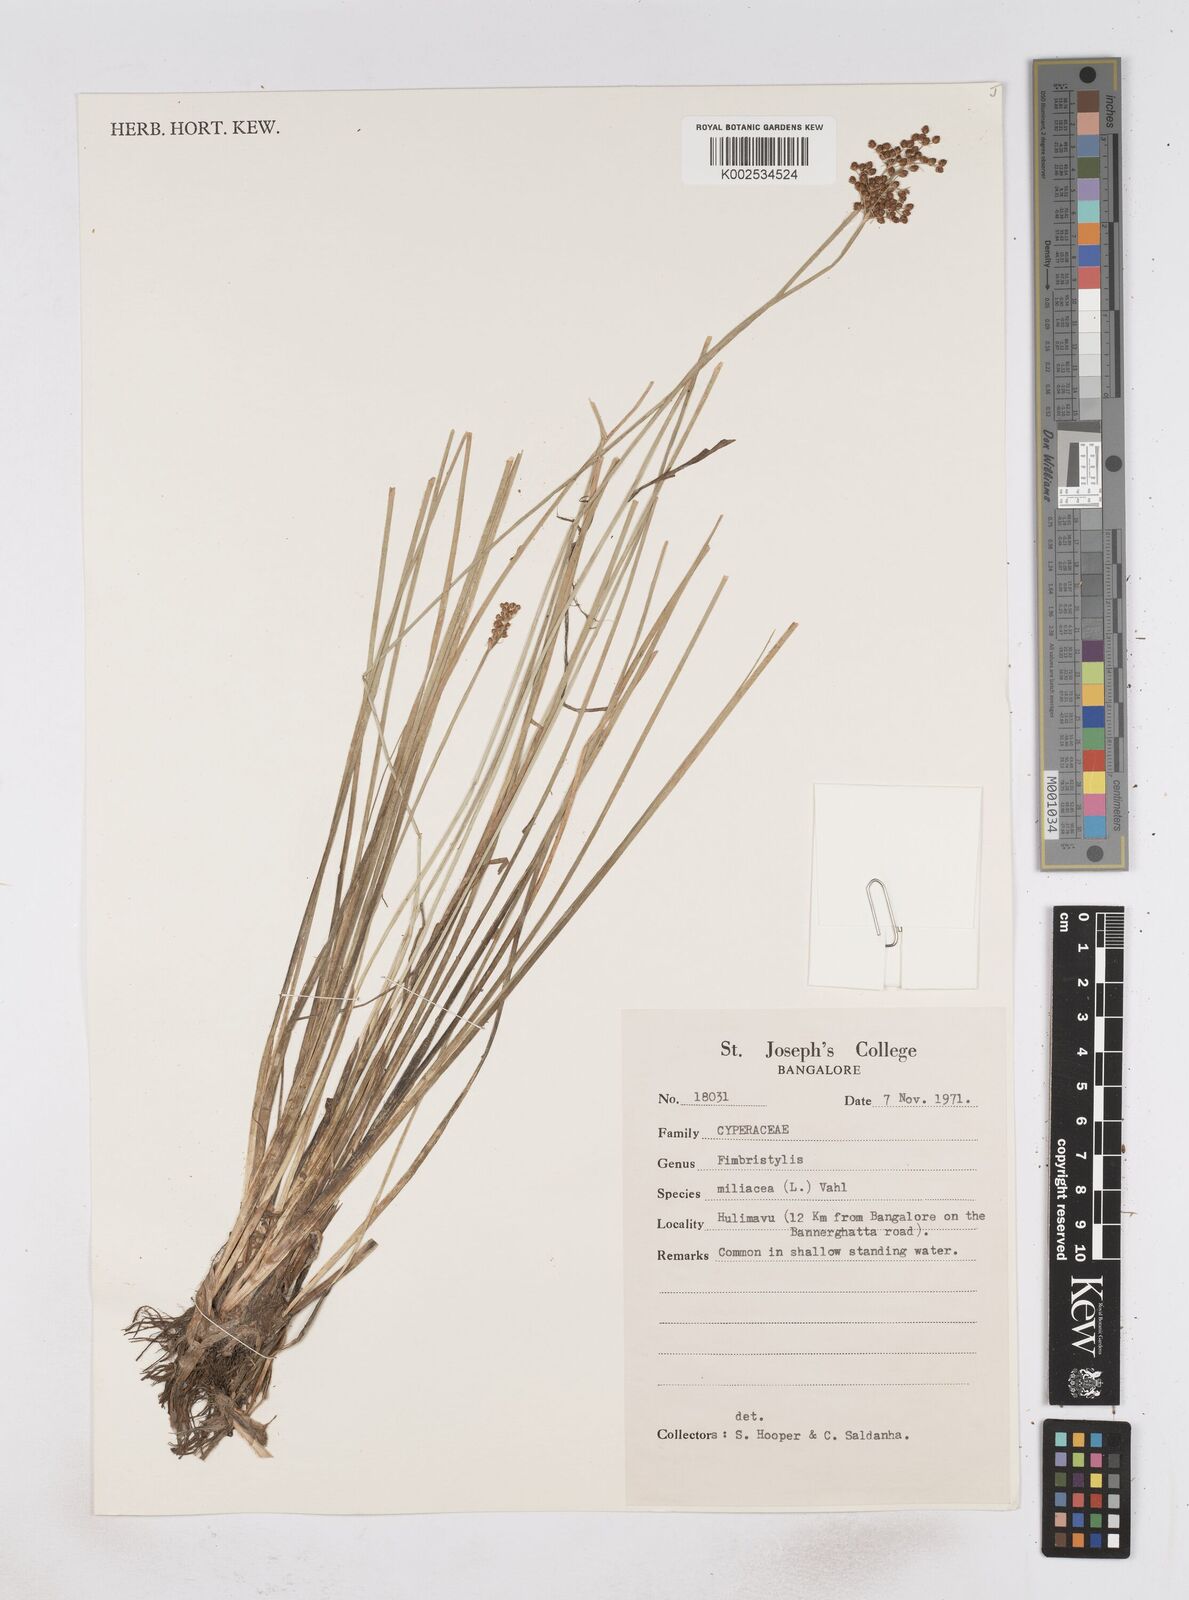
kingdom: Plantae
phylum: Tracheophyta
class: Liliopsida
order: Poales
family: Cyperaceae
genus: Fimbristylis
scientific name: Fimbristylis quinquangularis
